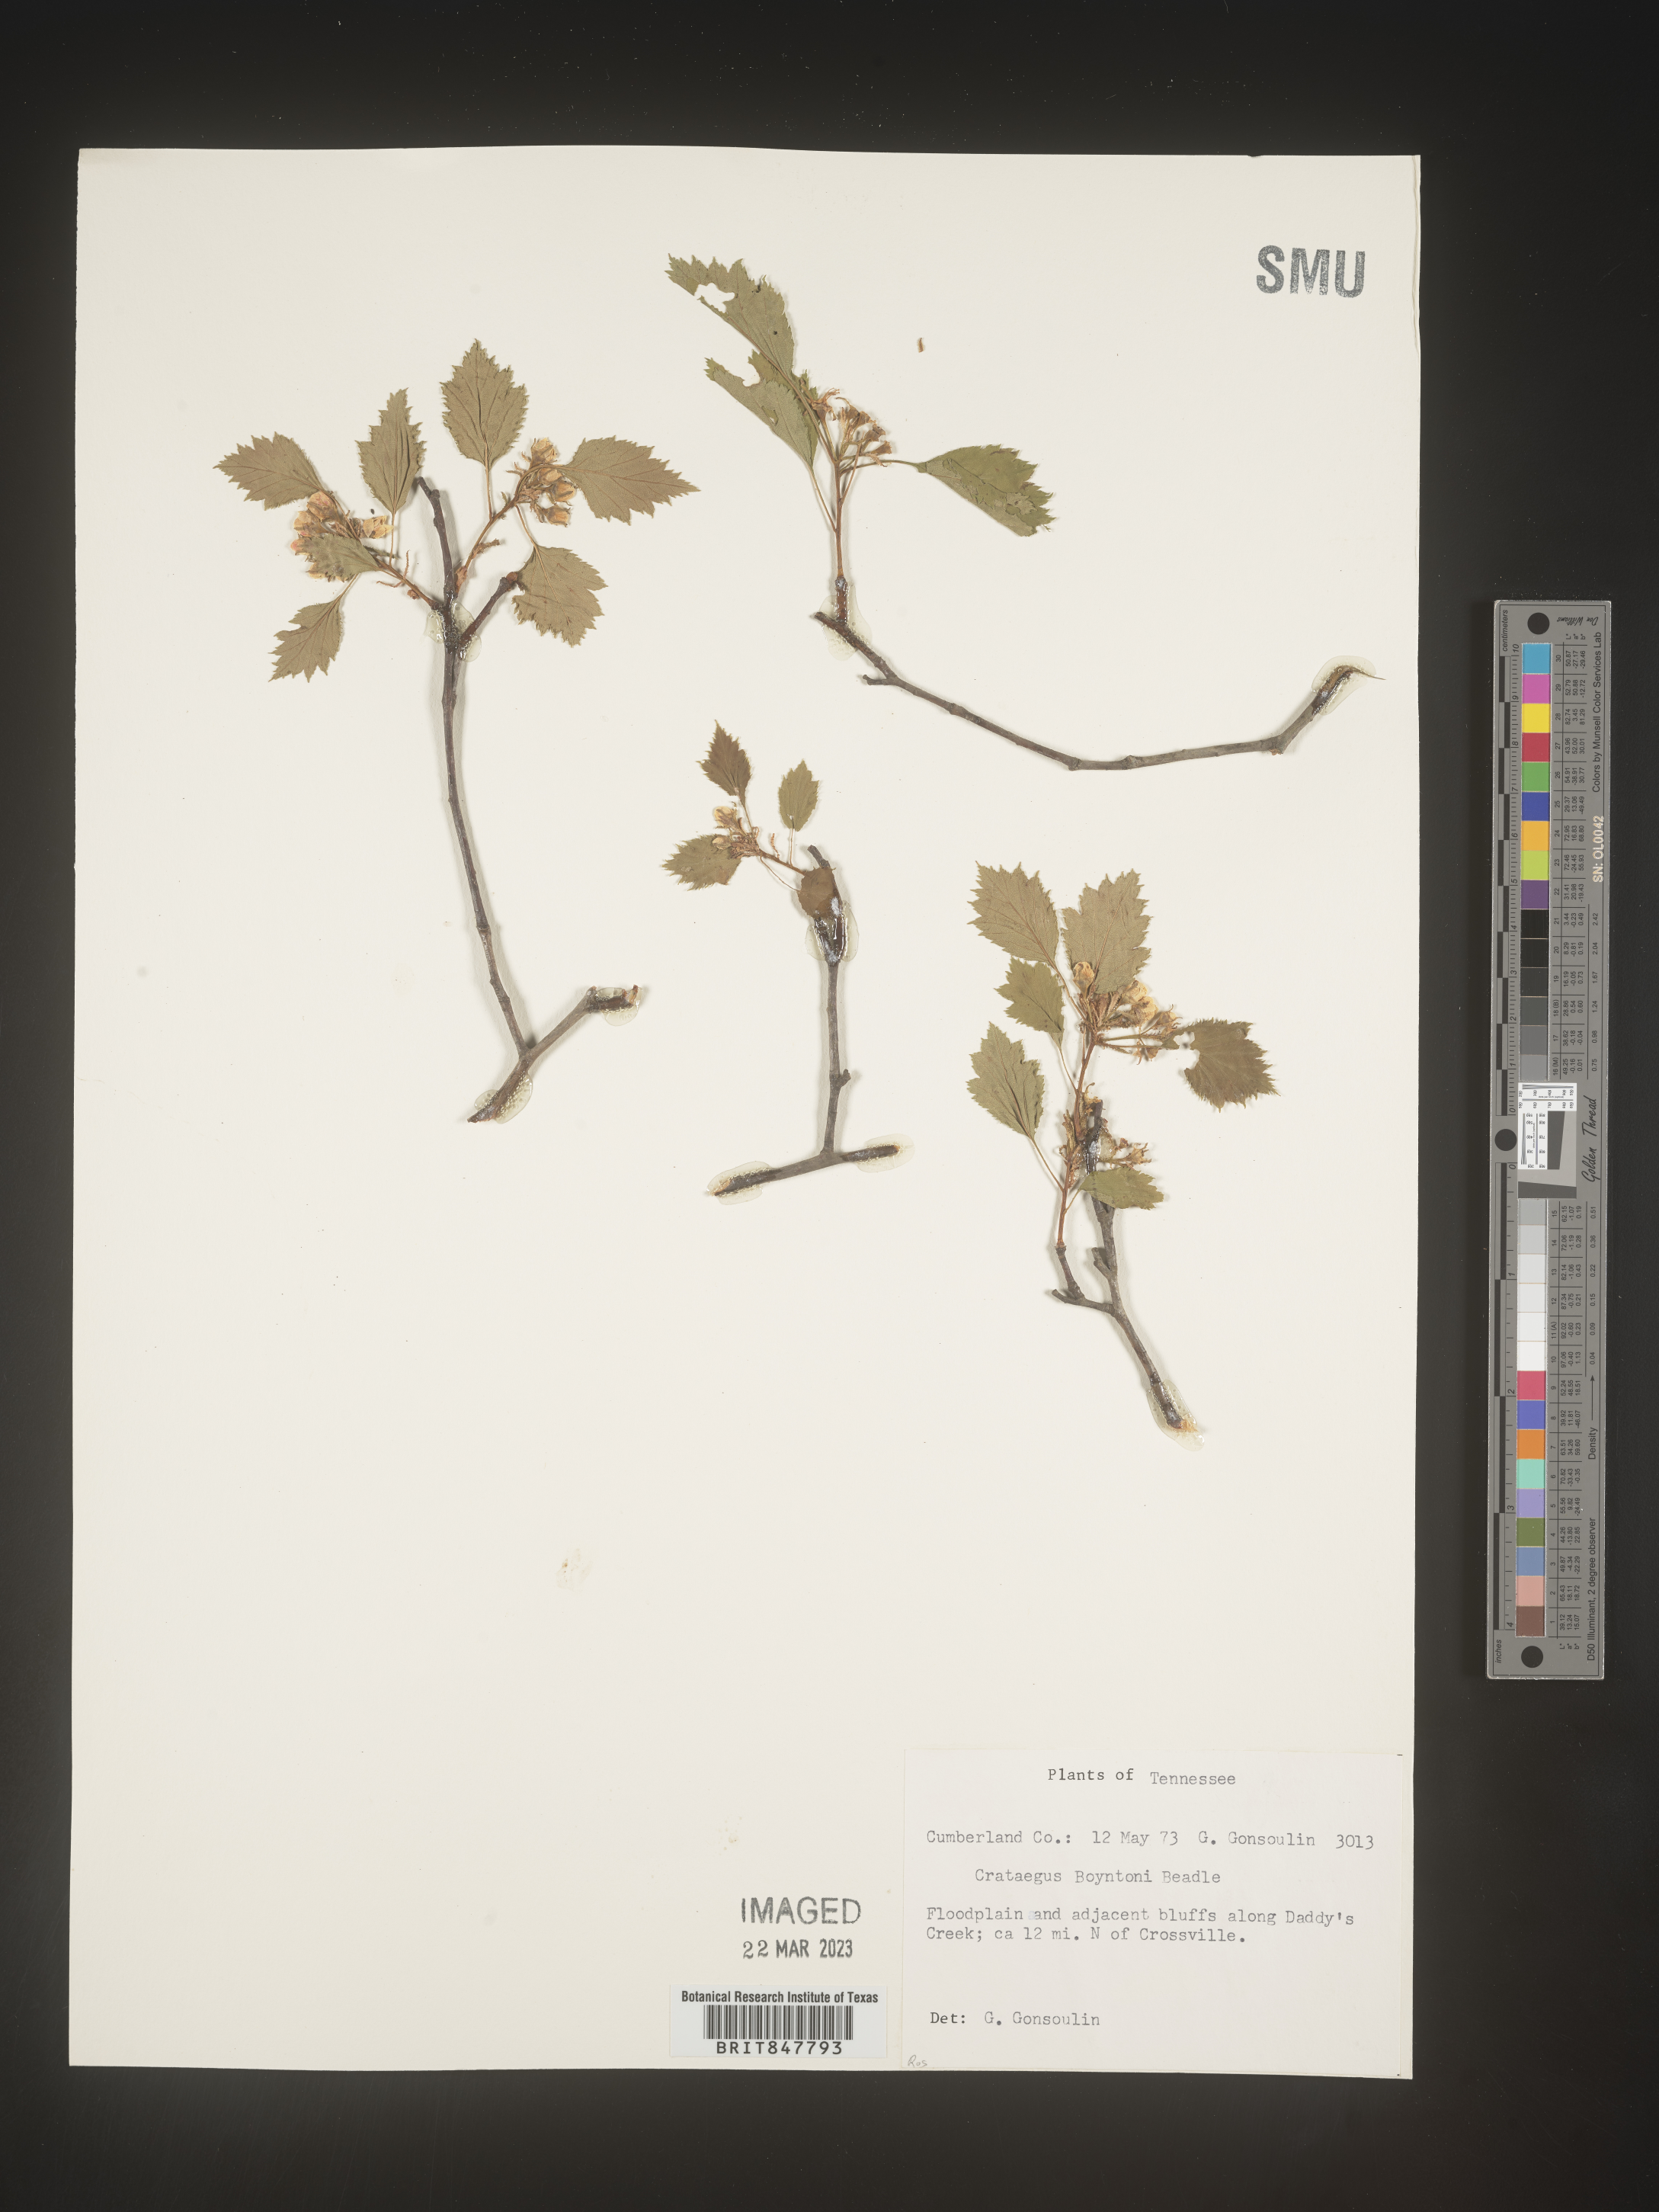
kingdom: Plantae
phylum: Tracheophyta
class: Magnoliopsida
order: Rosales
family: Rosaceae
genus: Crataegus
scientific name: Crataegus
